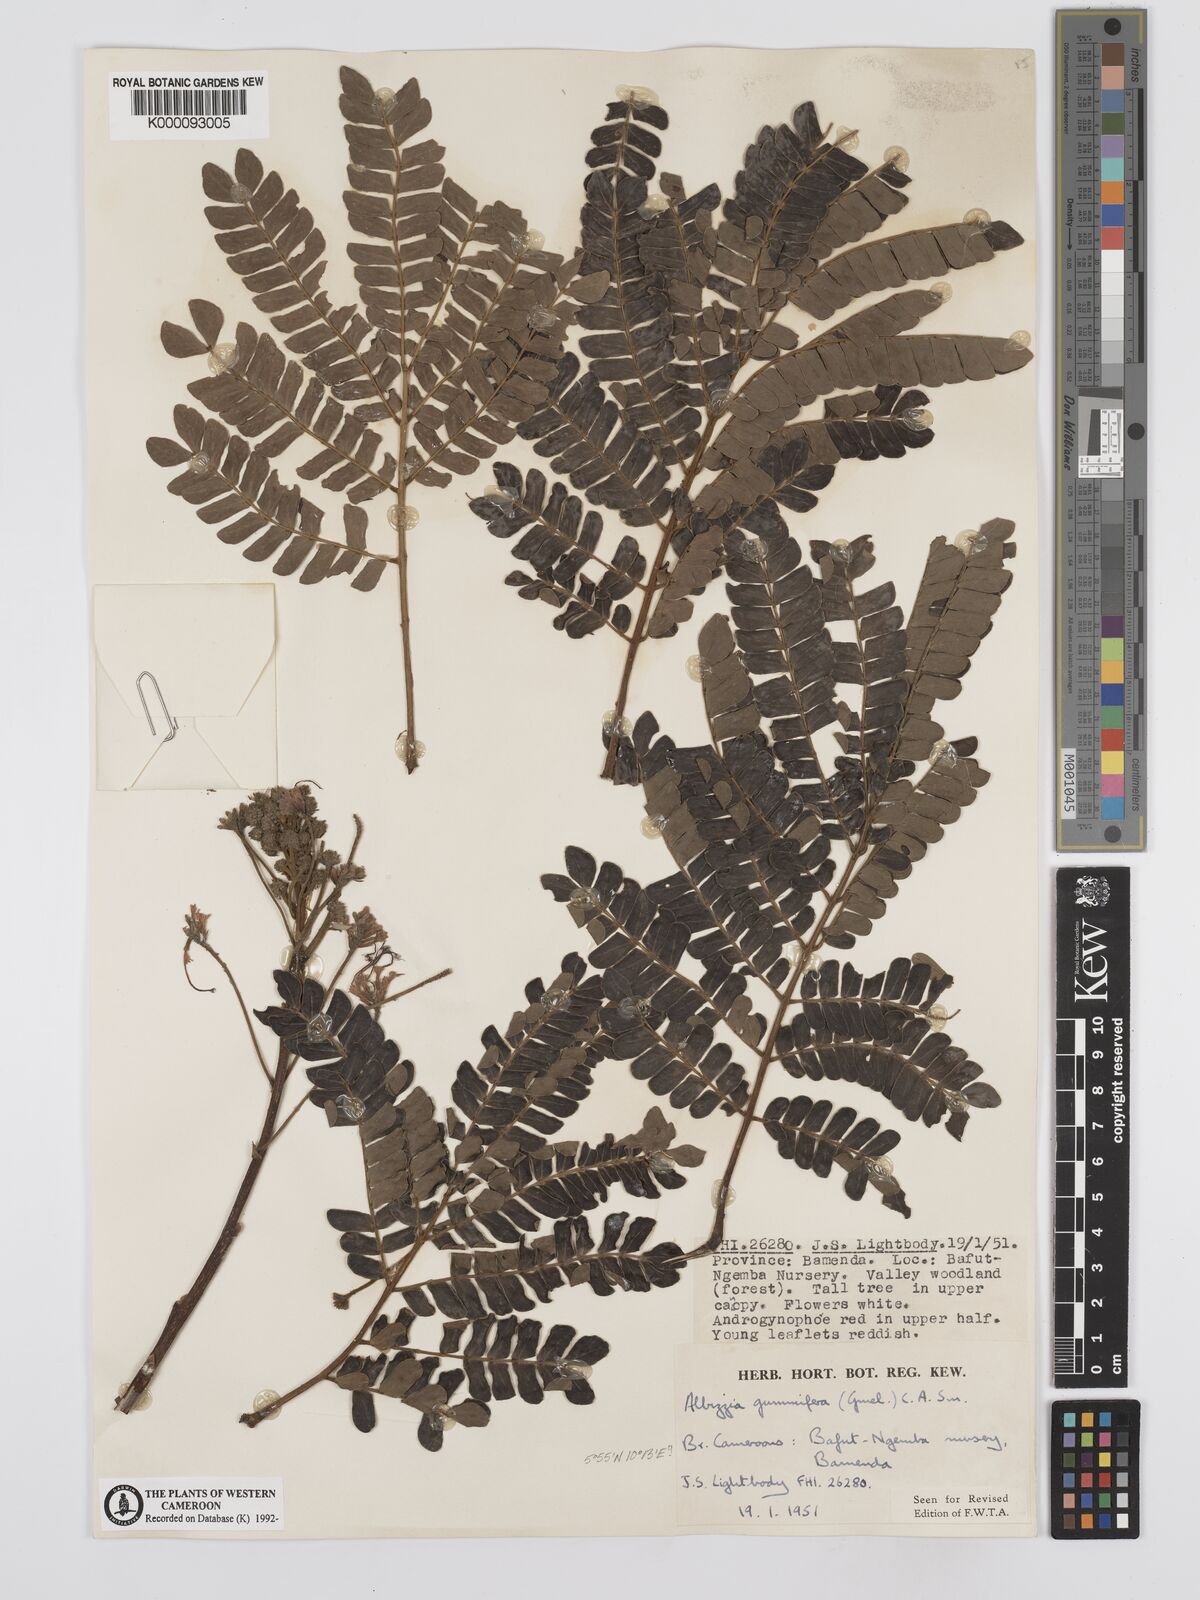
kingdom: Plantae
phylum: Tracheophyta
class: Magnoliopsida
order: Fabales
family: Fabaceae
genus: Albizia
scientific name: Albizia gummifera
